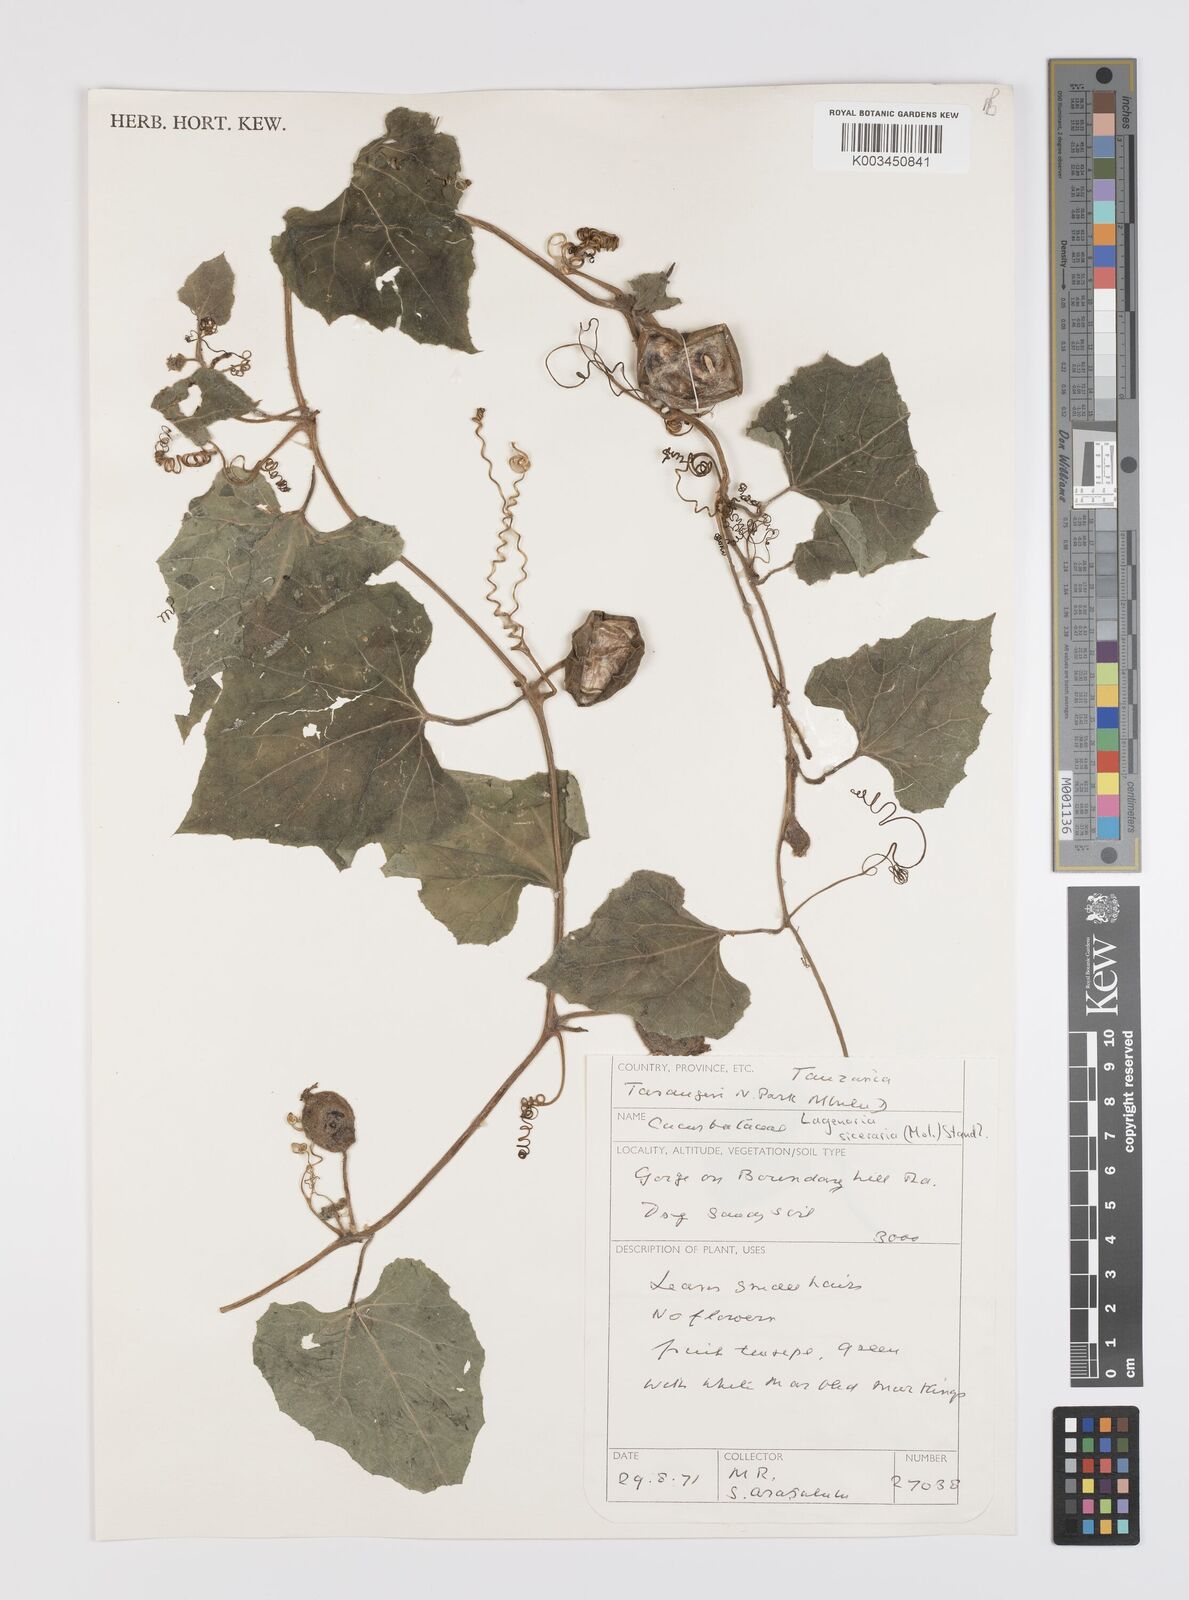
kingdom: Plantae
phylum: Tracheophyta
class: Magnoliopsida
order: Cucurbitales
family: Cucurbitaceae
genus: Lagenaria
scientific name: Lagenaria siceraria
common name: Bottle gourd
